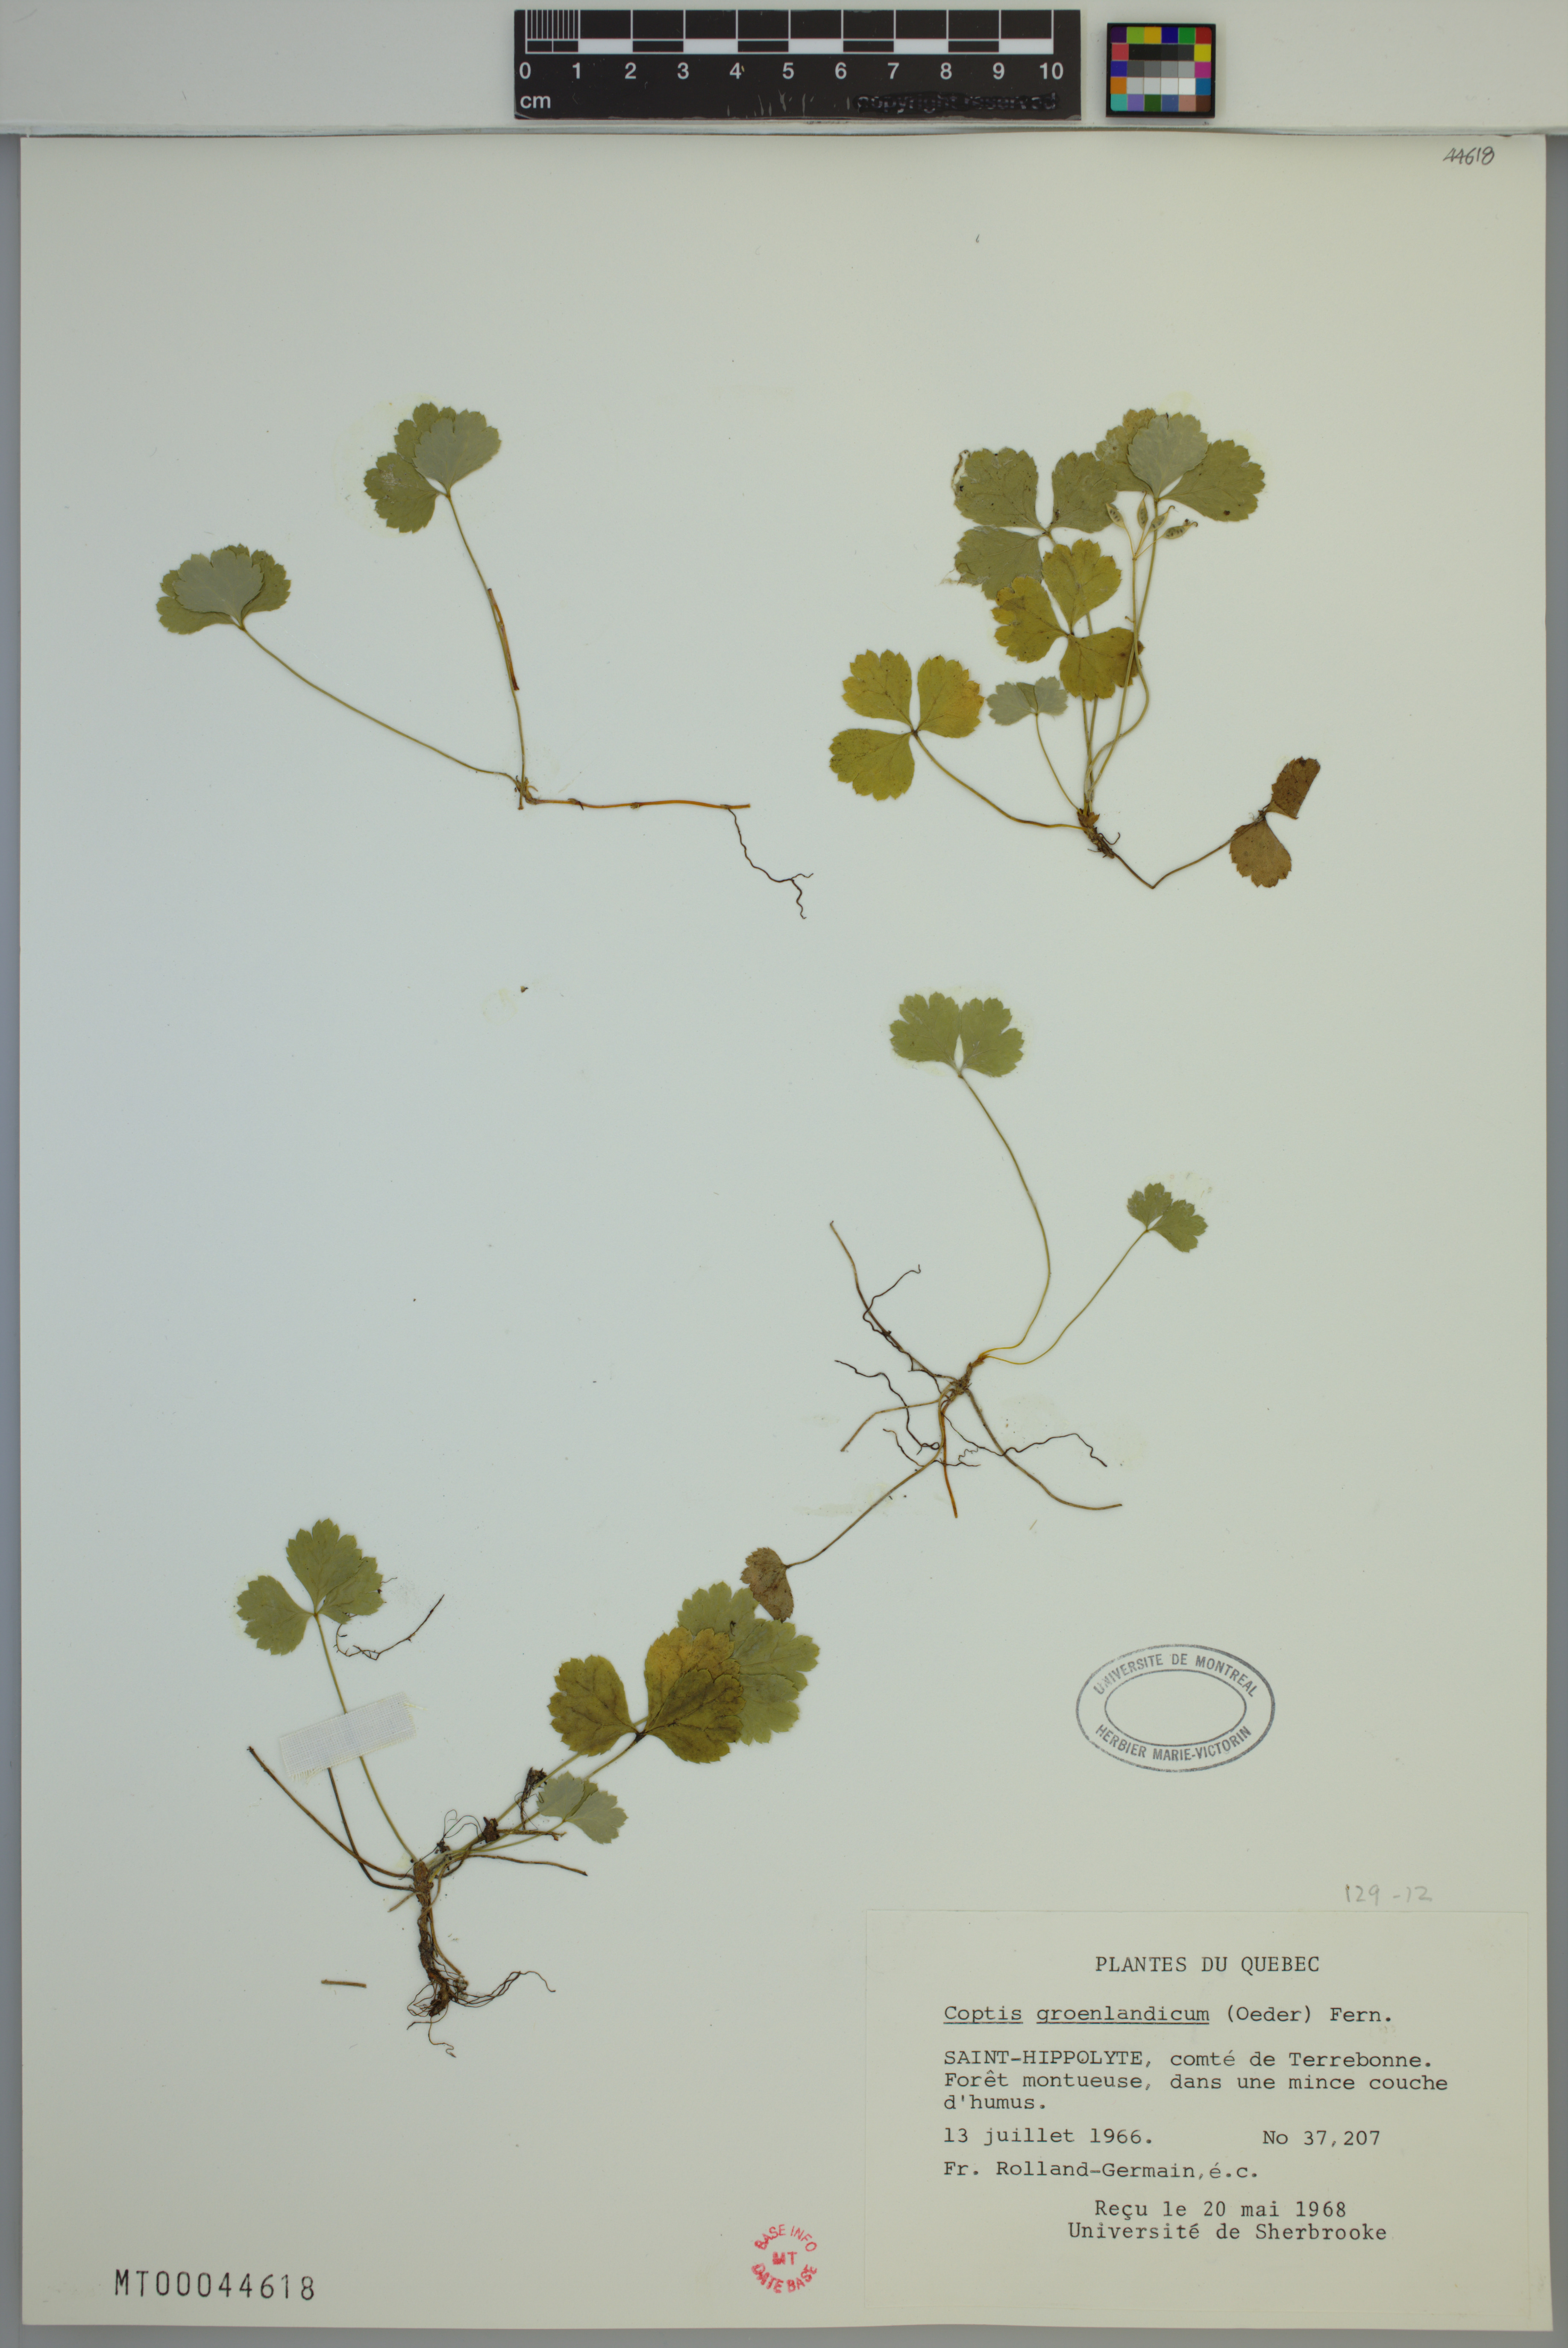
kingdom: Plantae
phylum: Tracheophyta
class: Magnoliopsida
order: Ranunculales
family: Ranunculaceae
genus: Coptis
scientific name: Coptis trifolia
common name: Canker-root
